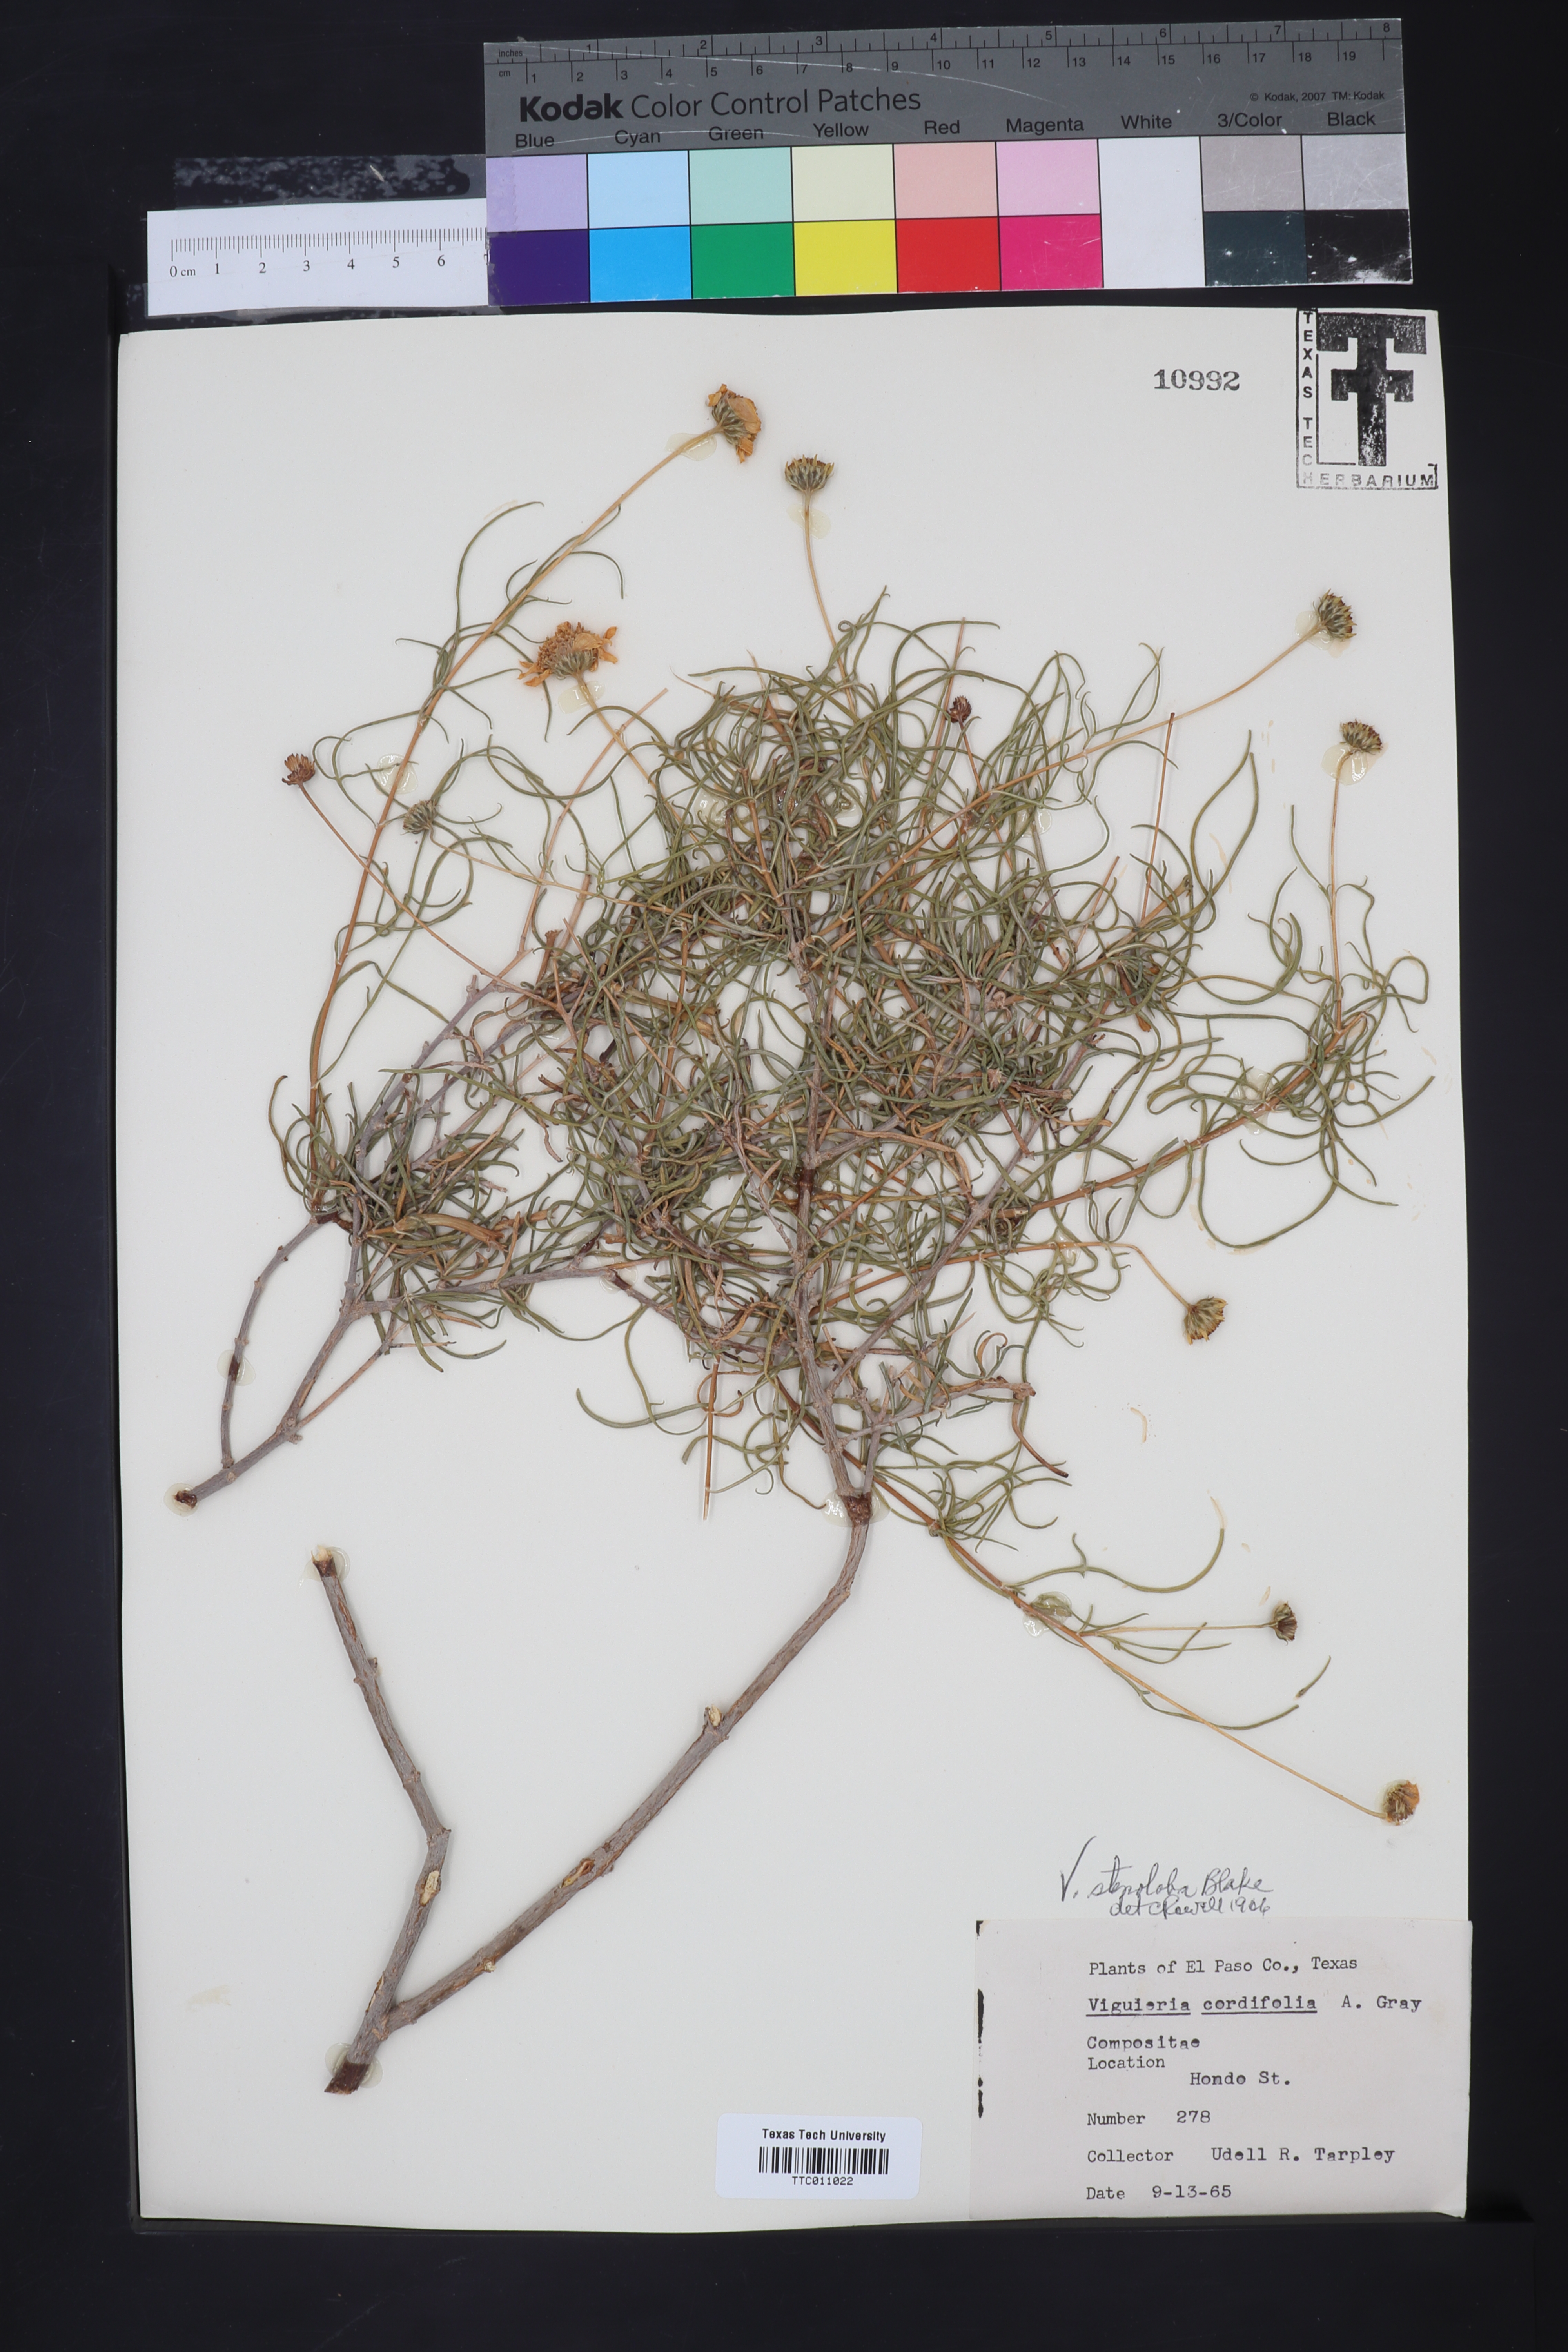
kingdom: Plantae
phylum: Tracheophyta
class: Magnoliopsida
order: Asterales
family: Asteraceae
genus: Sidneya
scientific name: Sidneya tenuifolia
